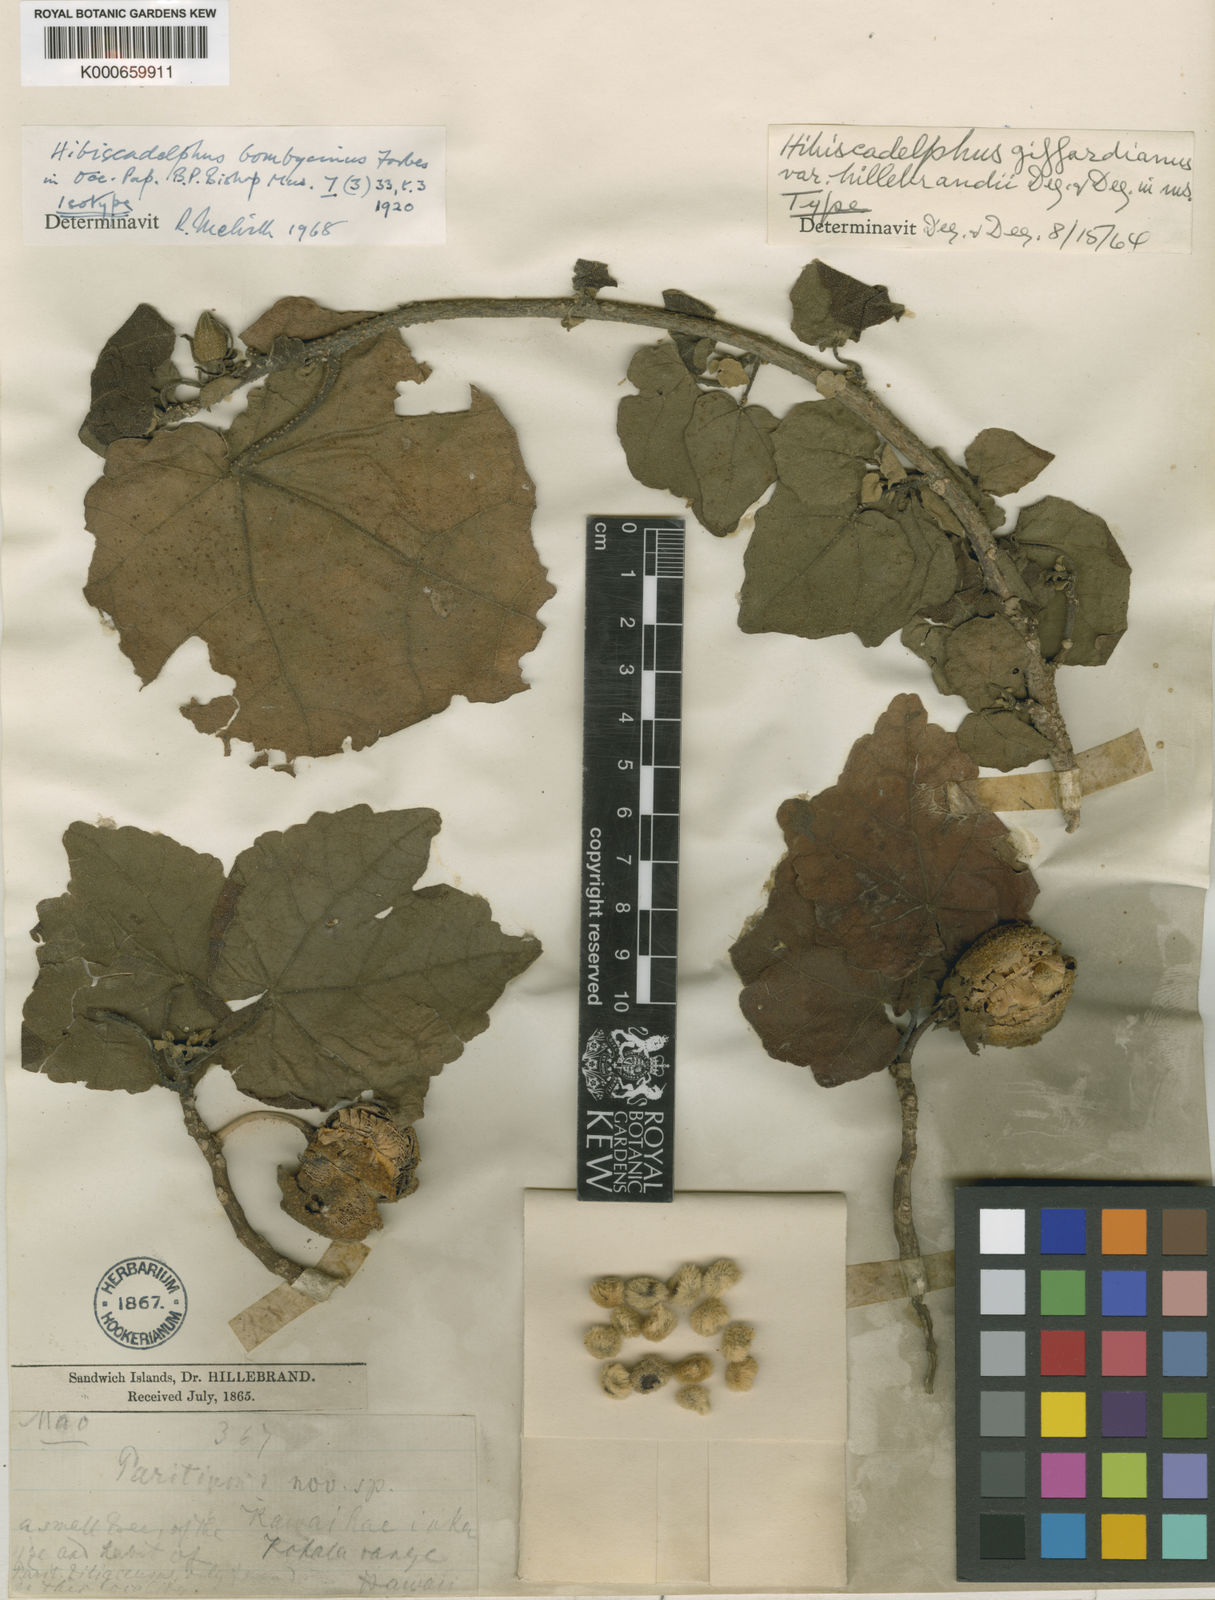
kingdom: Plantae
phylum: Tracheophyta
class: Magnoliopsida
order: Malvales
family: Malvaceae
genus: Hibiscadelphus
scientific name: Hibiscadelphus bombycinus
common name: Kawaihae hibiscadelphus
